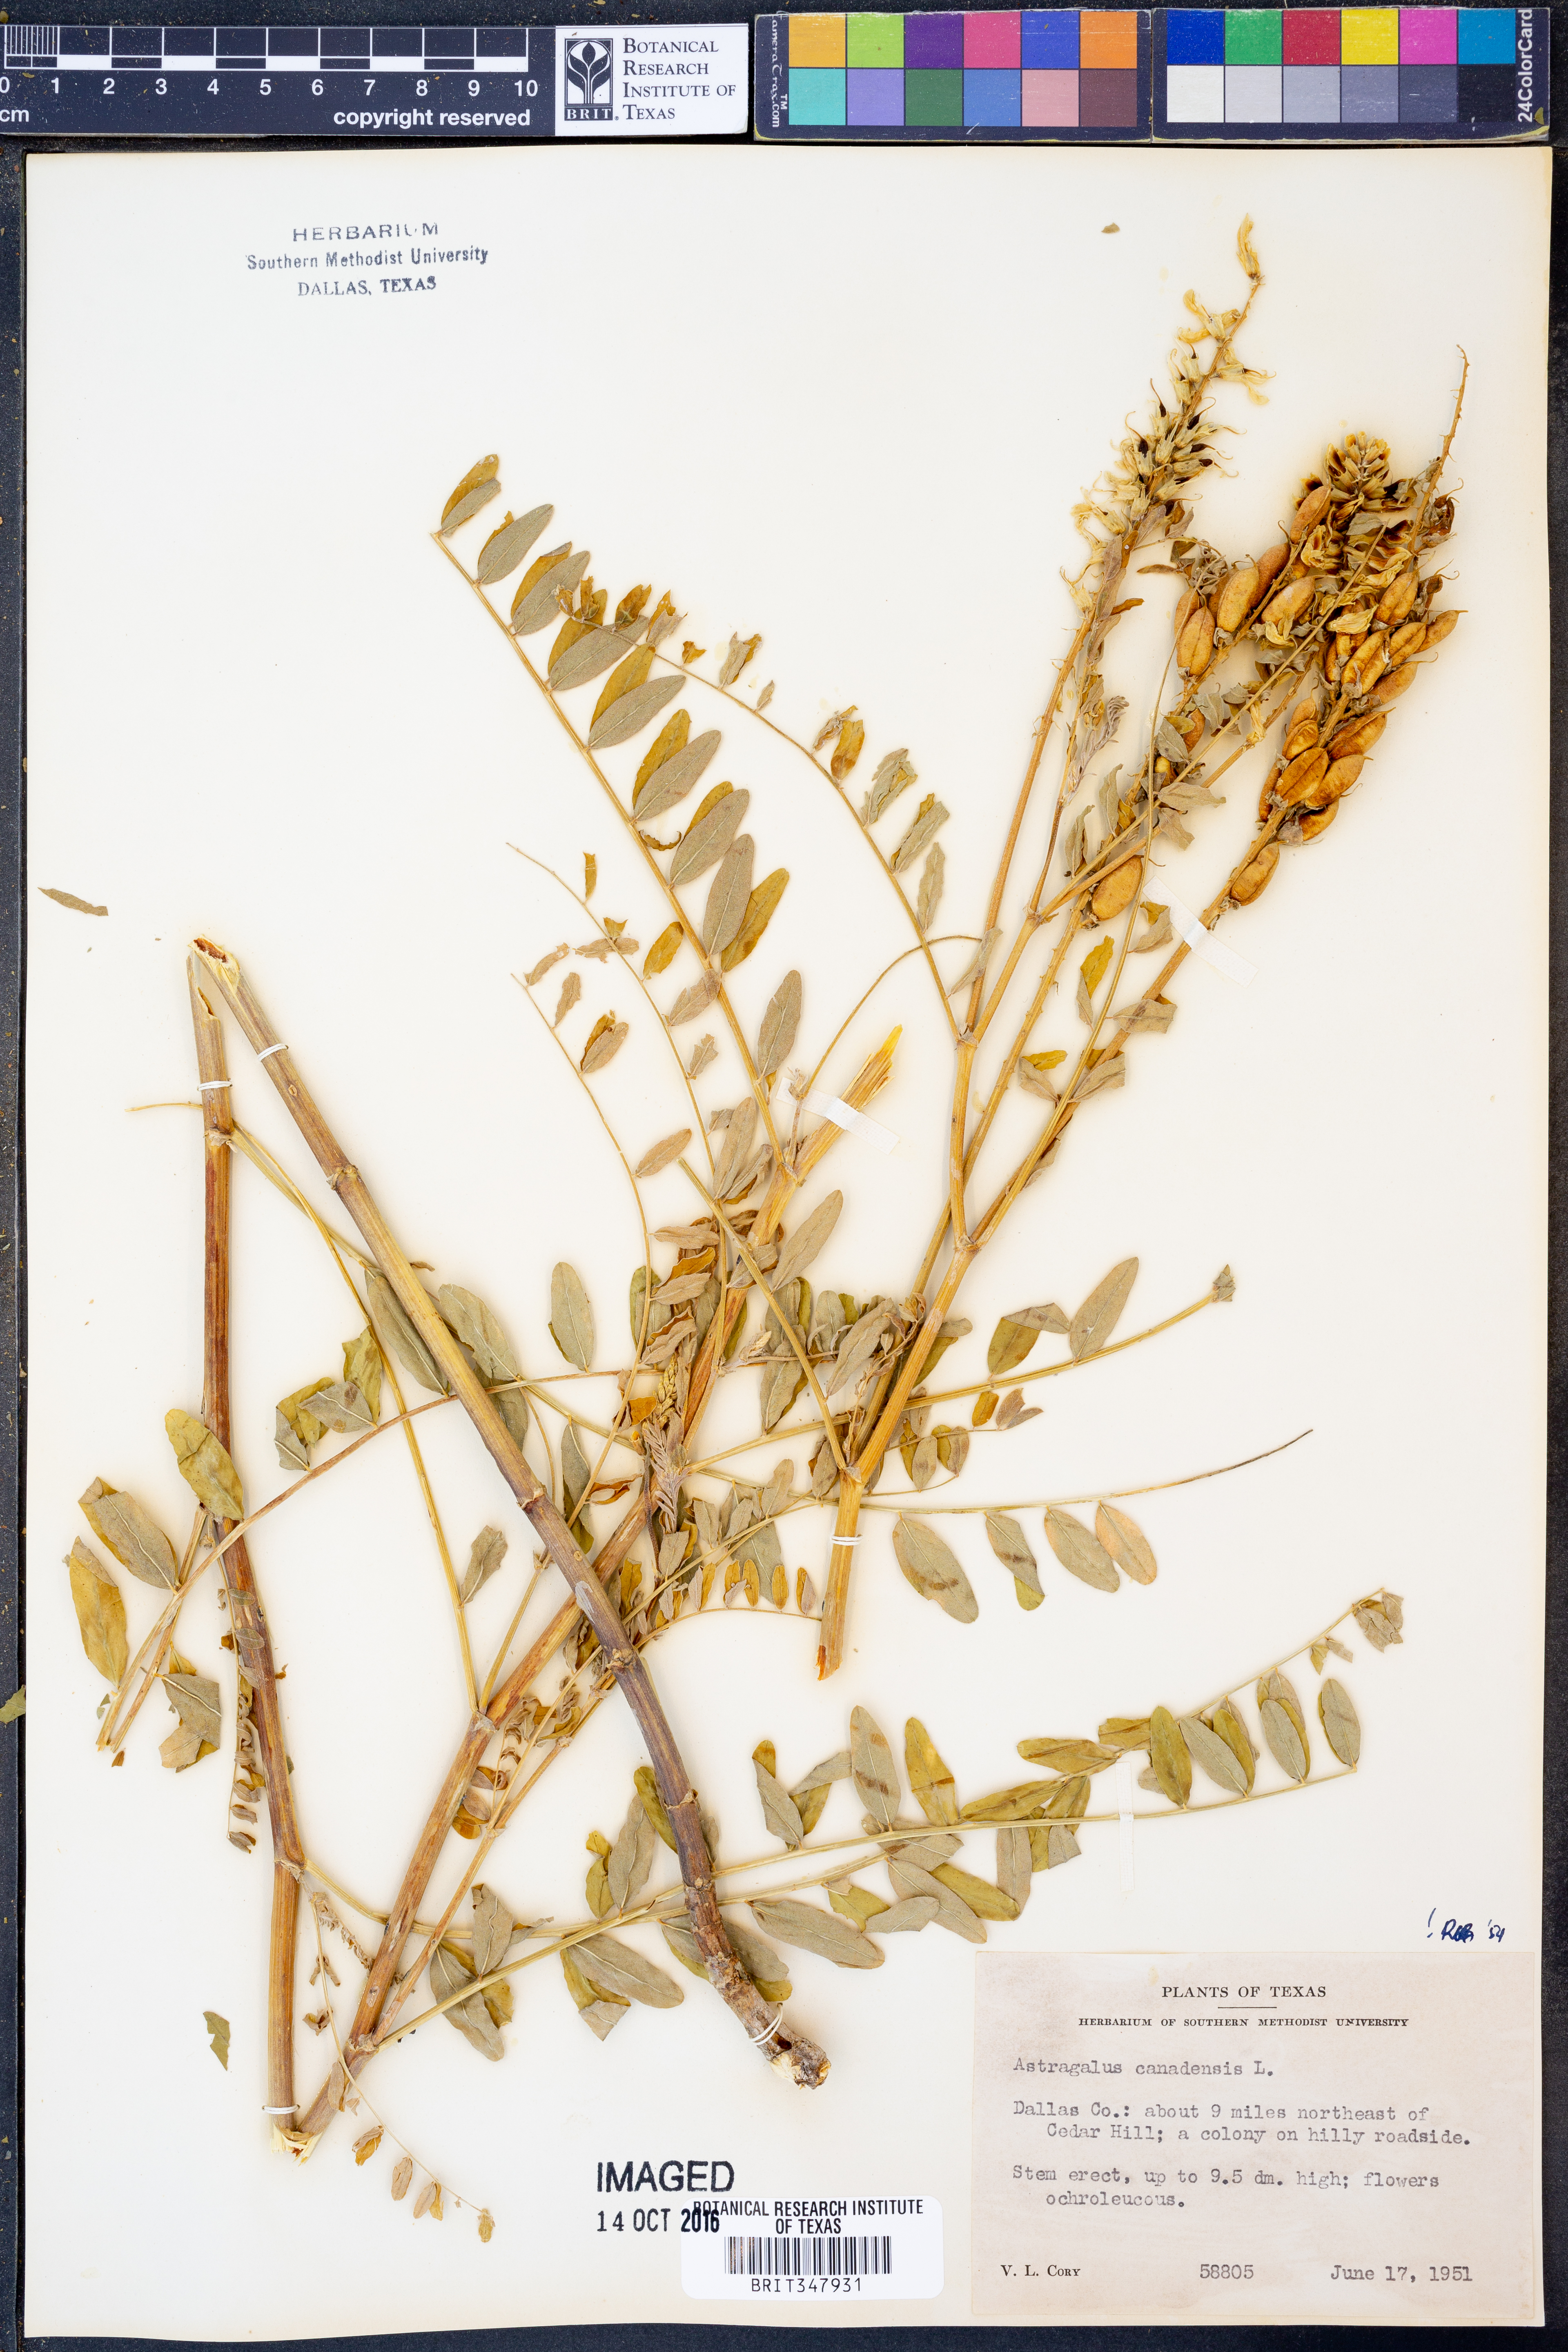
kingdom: Plantae
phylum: Tracheophyta
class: Magnoliopsida
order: Fabales
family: Fabaceae
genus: Astragalus
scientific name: Astragalus canadensis
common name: Canada milk-vetch
